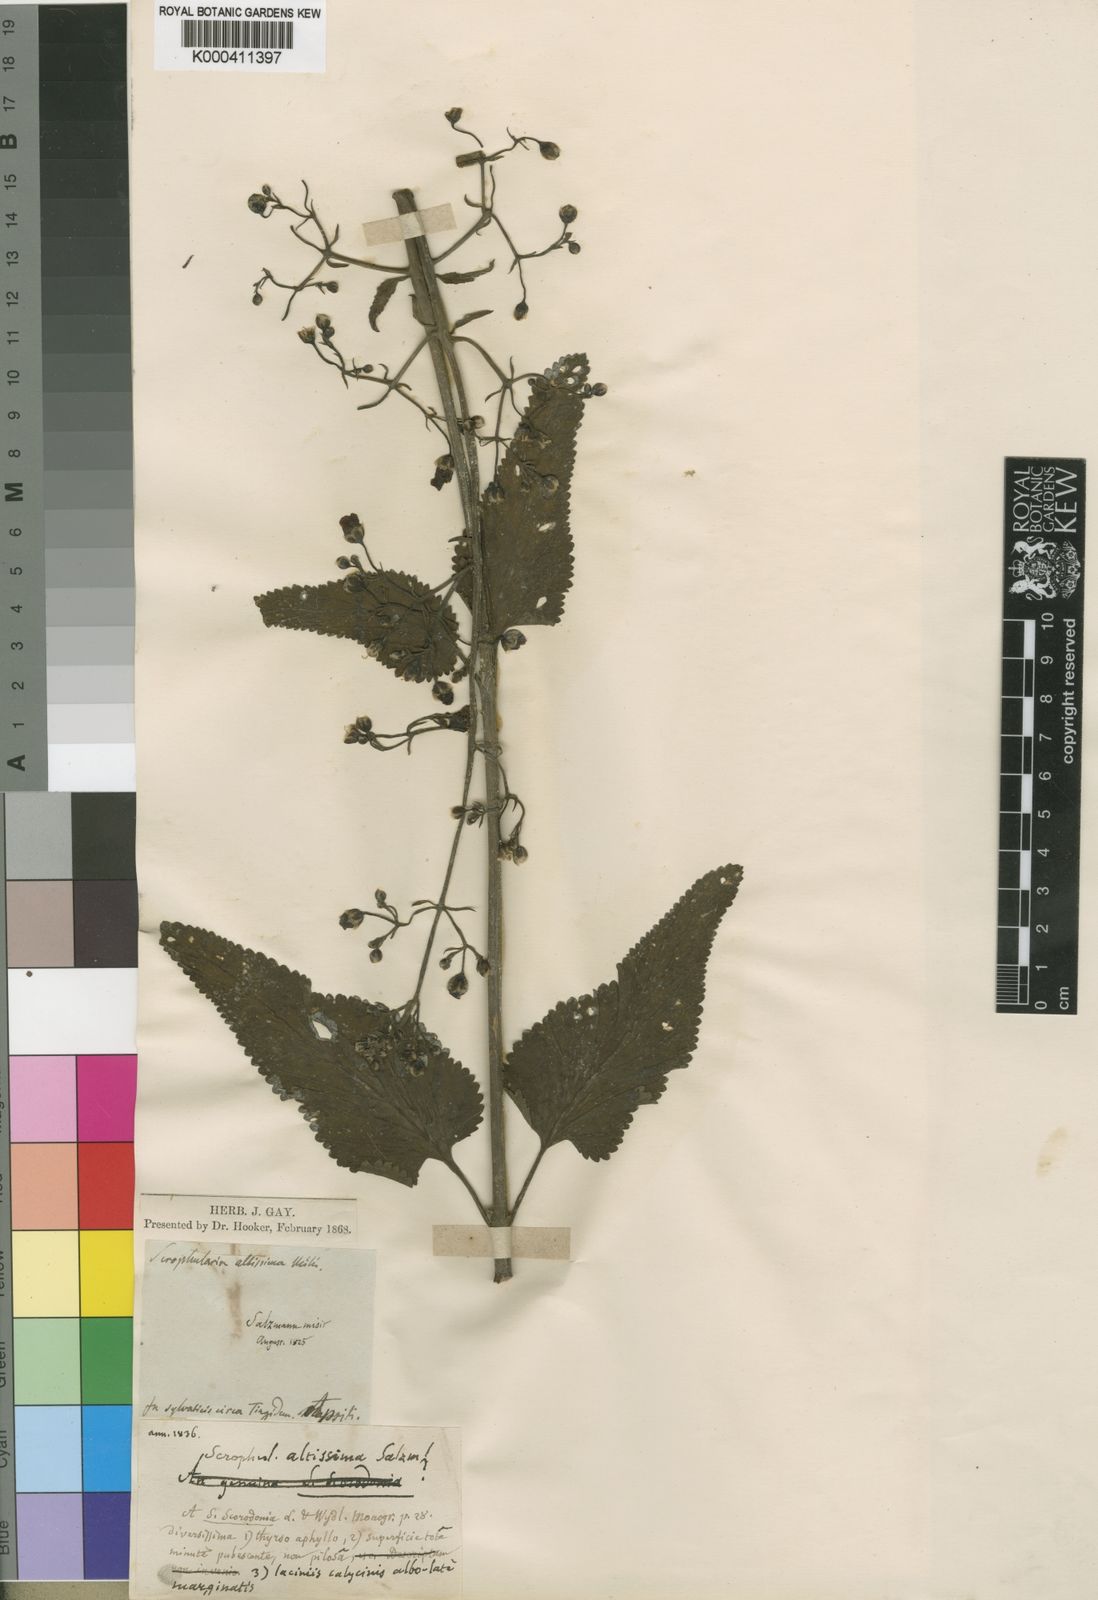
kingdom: Plantae
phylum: Tracheophyta
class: Magnoliopsida
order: Lamiales
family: Scrophulariaceae
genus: Scrophularia
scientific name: Scrophularia
